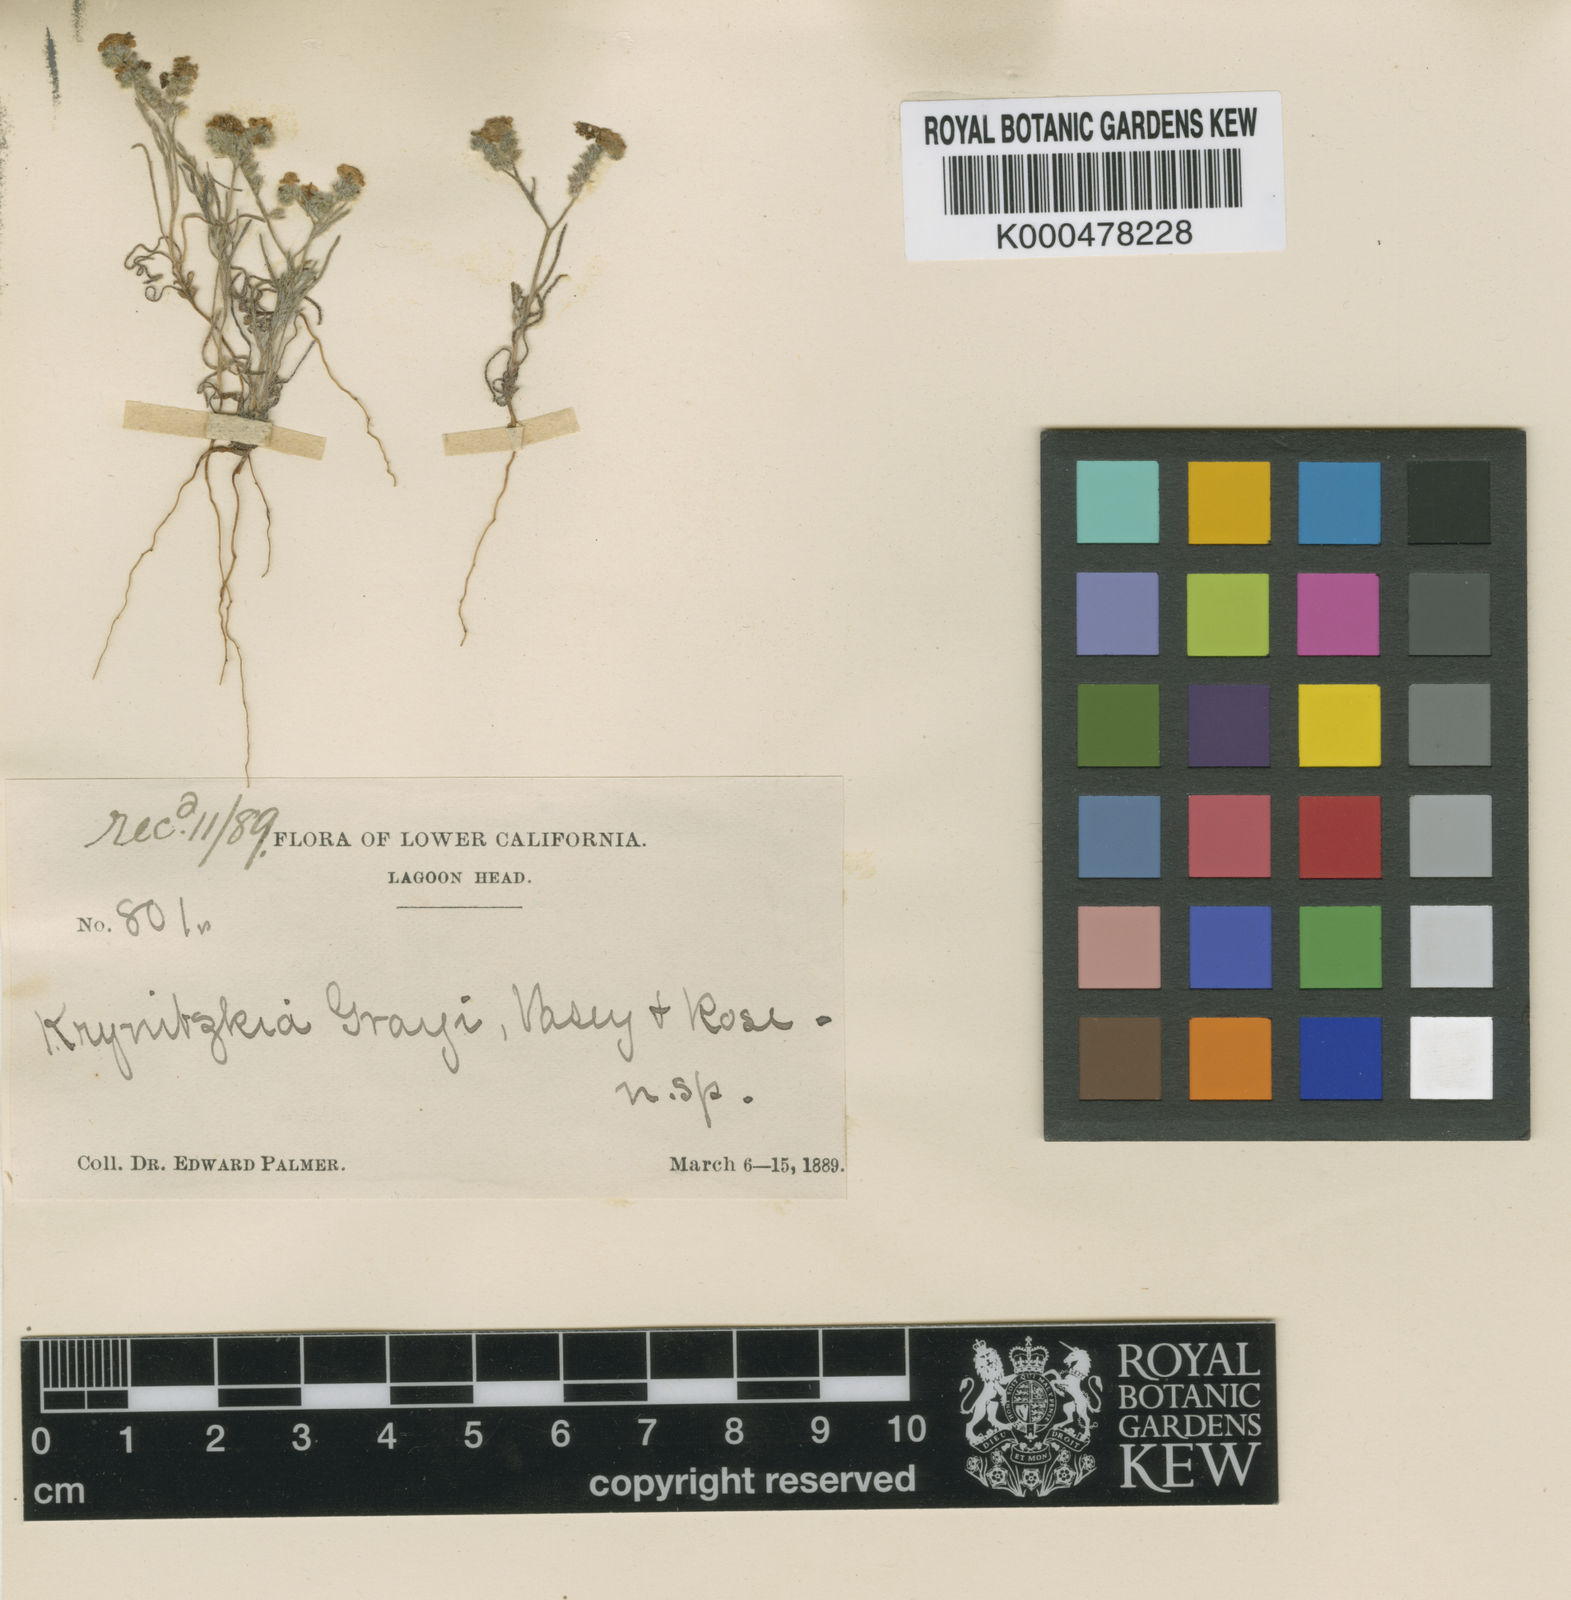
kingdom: Plantae
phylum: Tracheophyta
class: Magnoliopsida
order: Boraginales
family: Boraginaceae
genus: Johnstonella
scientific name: Johnstonella grayi
